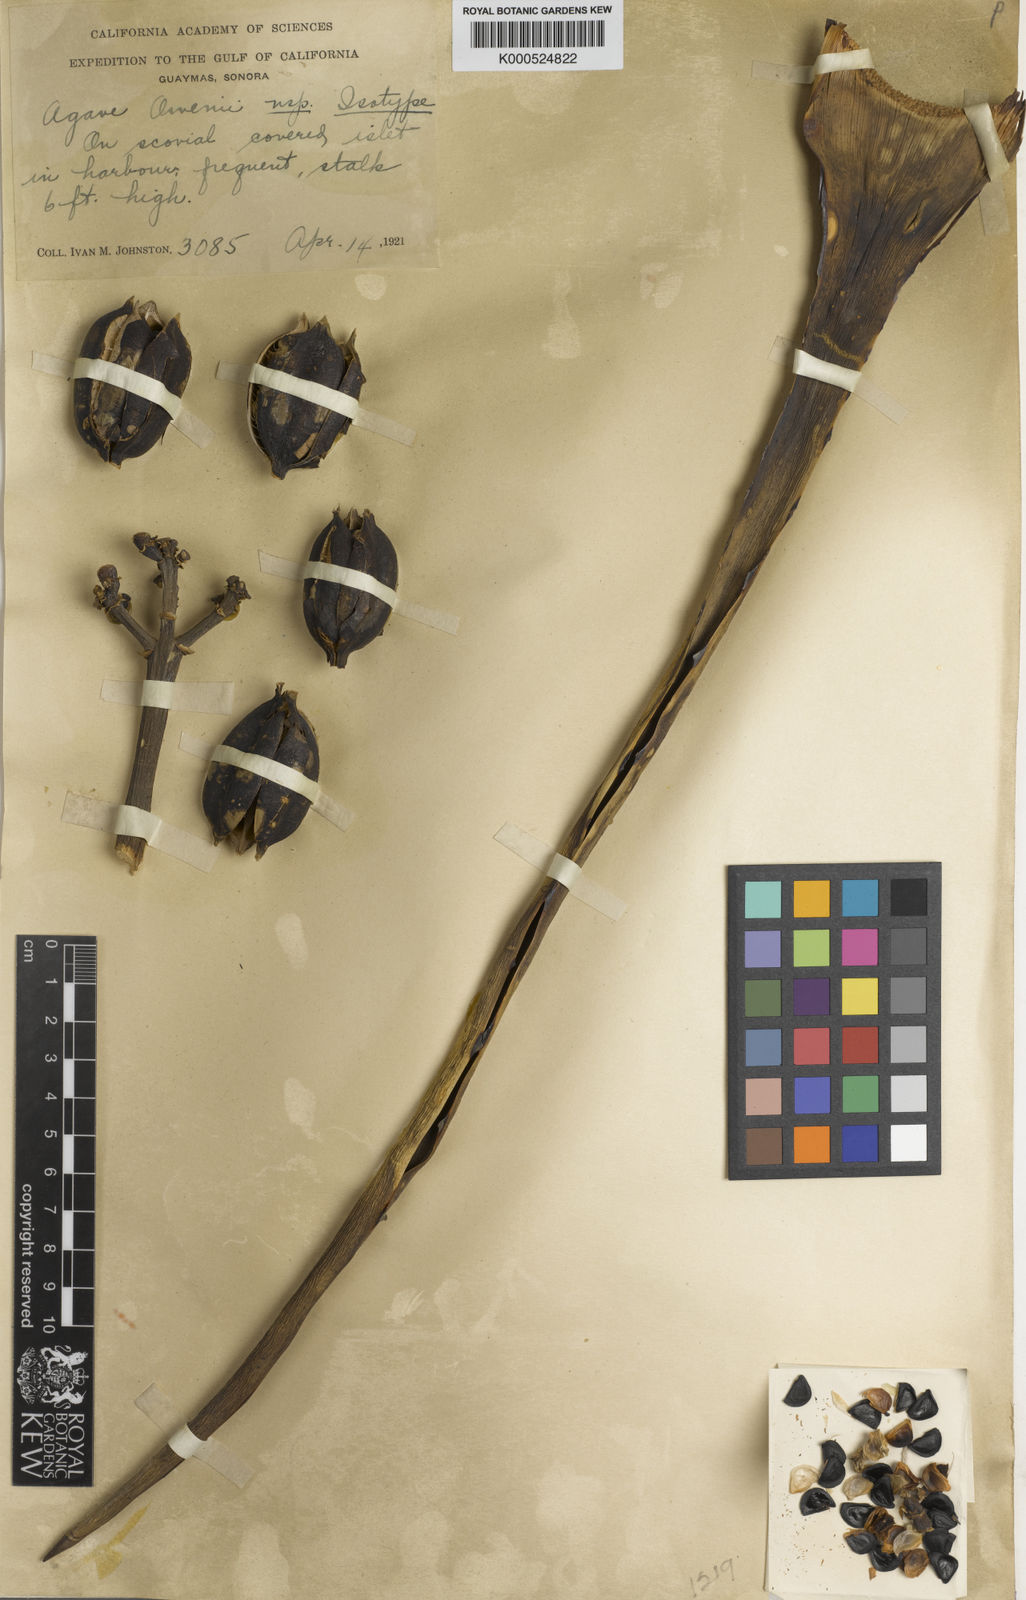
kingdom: Plantae
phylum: Tracheophyta
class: Liliopsida
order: Asparagales
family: Asparagaceae
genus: Agave
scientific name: Agave angustifolia
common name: Mescal agave
